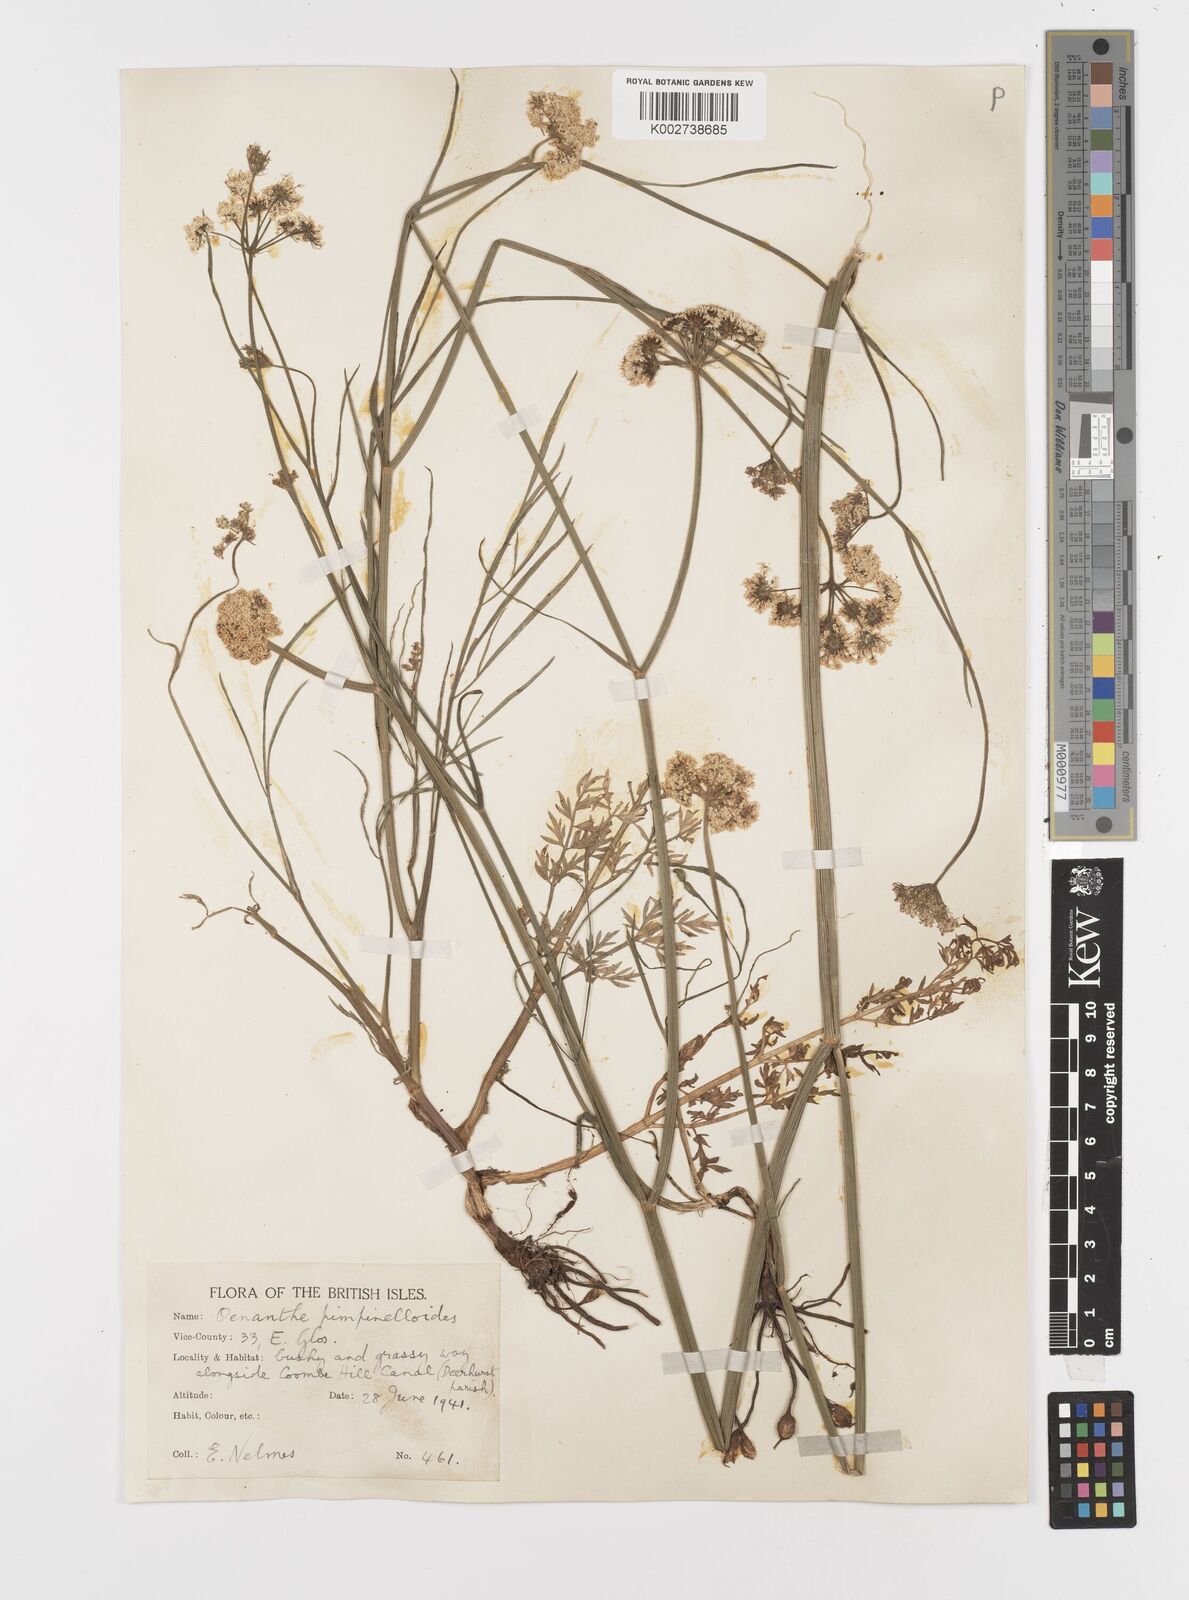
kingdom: Plantae
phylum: Tracheophyta
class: Magnoliopsida
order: Apiales
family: Apiaceae
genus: Oenanthe
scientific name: Oenanthe pimpinelloides
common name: Corky-fruited water-dropwort
